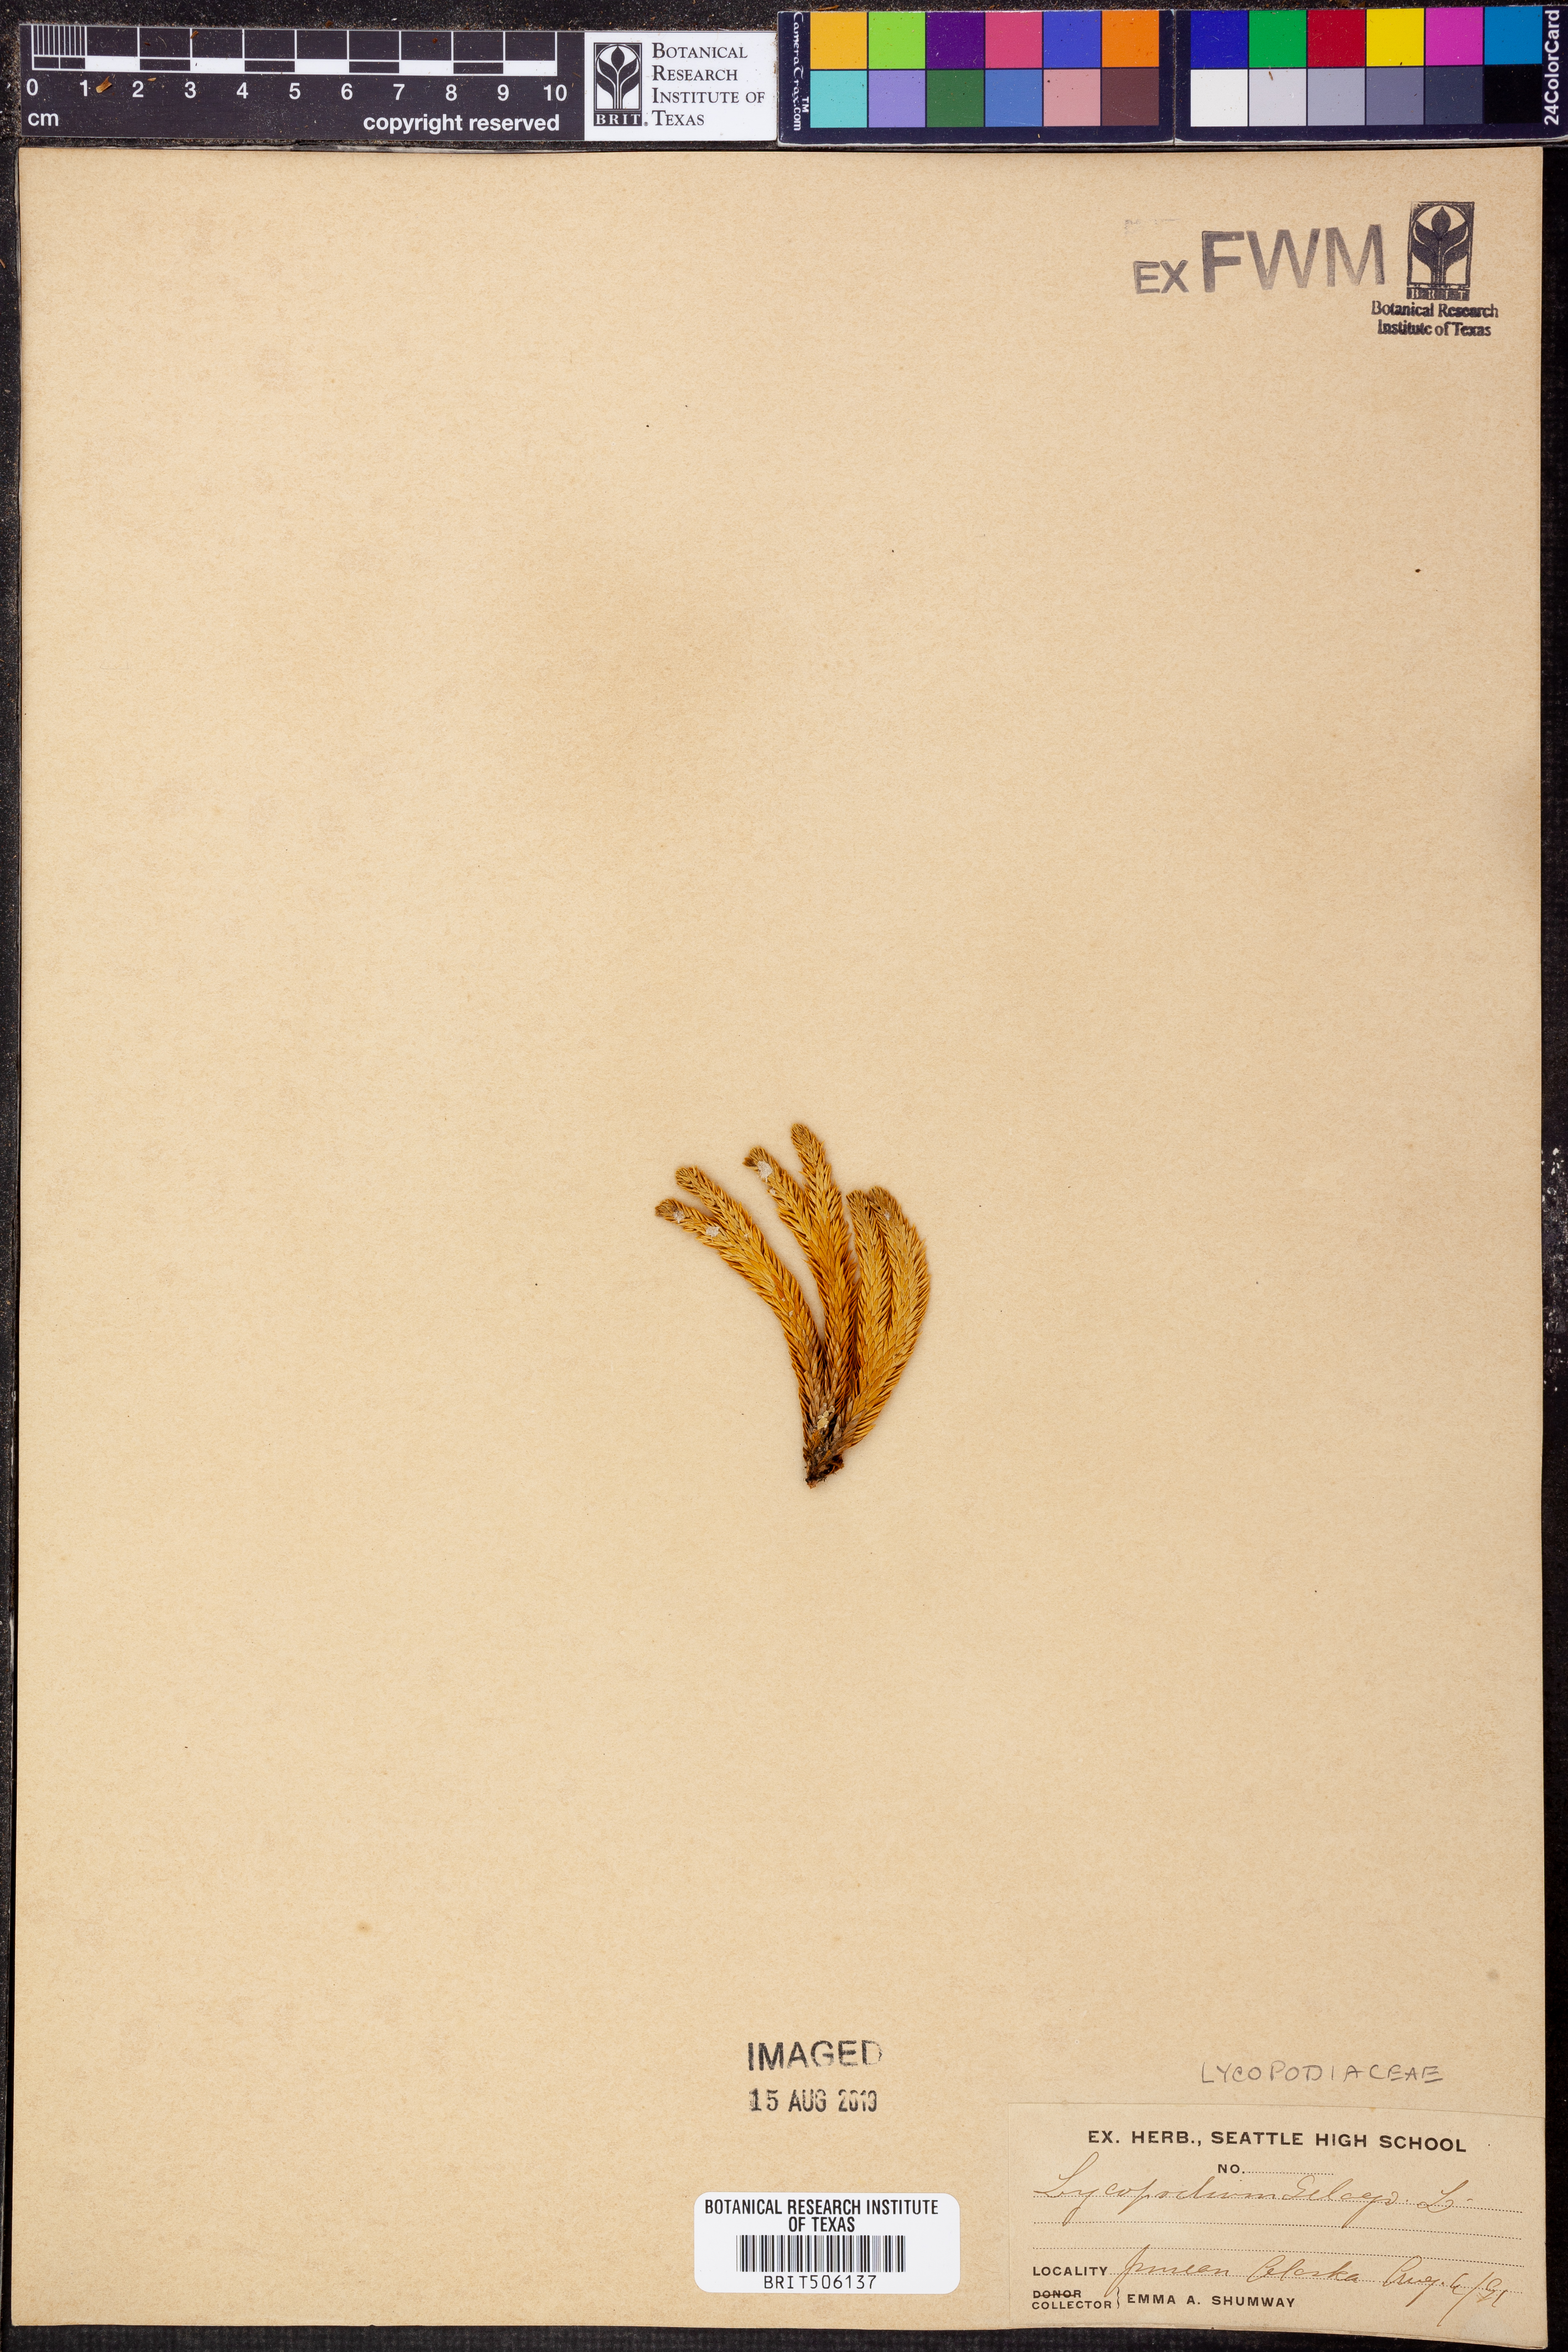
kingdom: Plantae
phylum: Tracheophyta
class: Lycopodiopsida
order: Lycopodiales
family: Lycopodiaceae
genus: Huperzia
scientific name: Huperzia selago
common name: Northern firmoss
